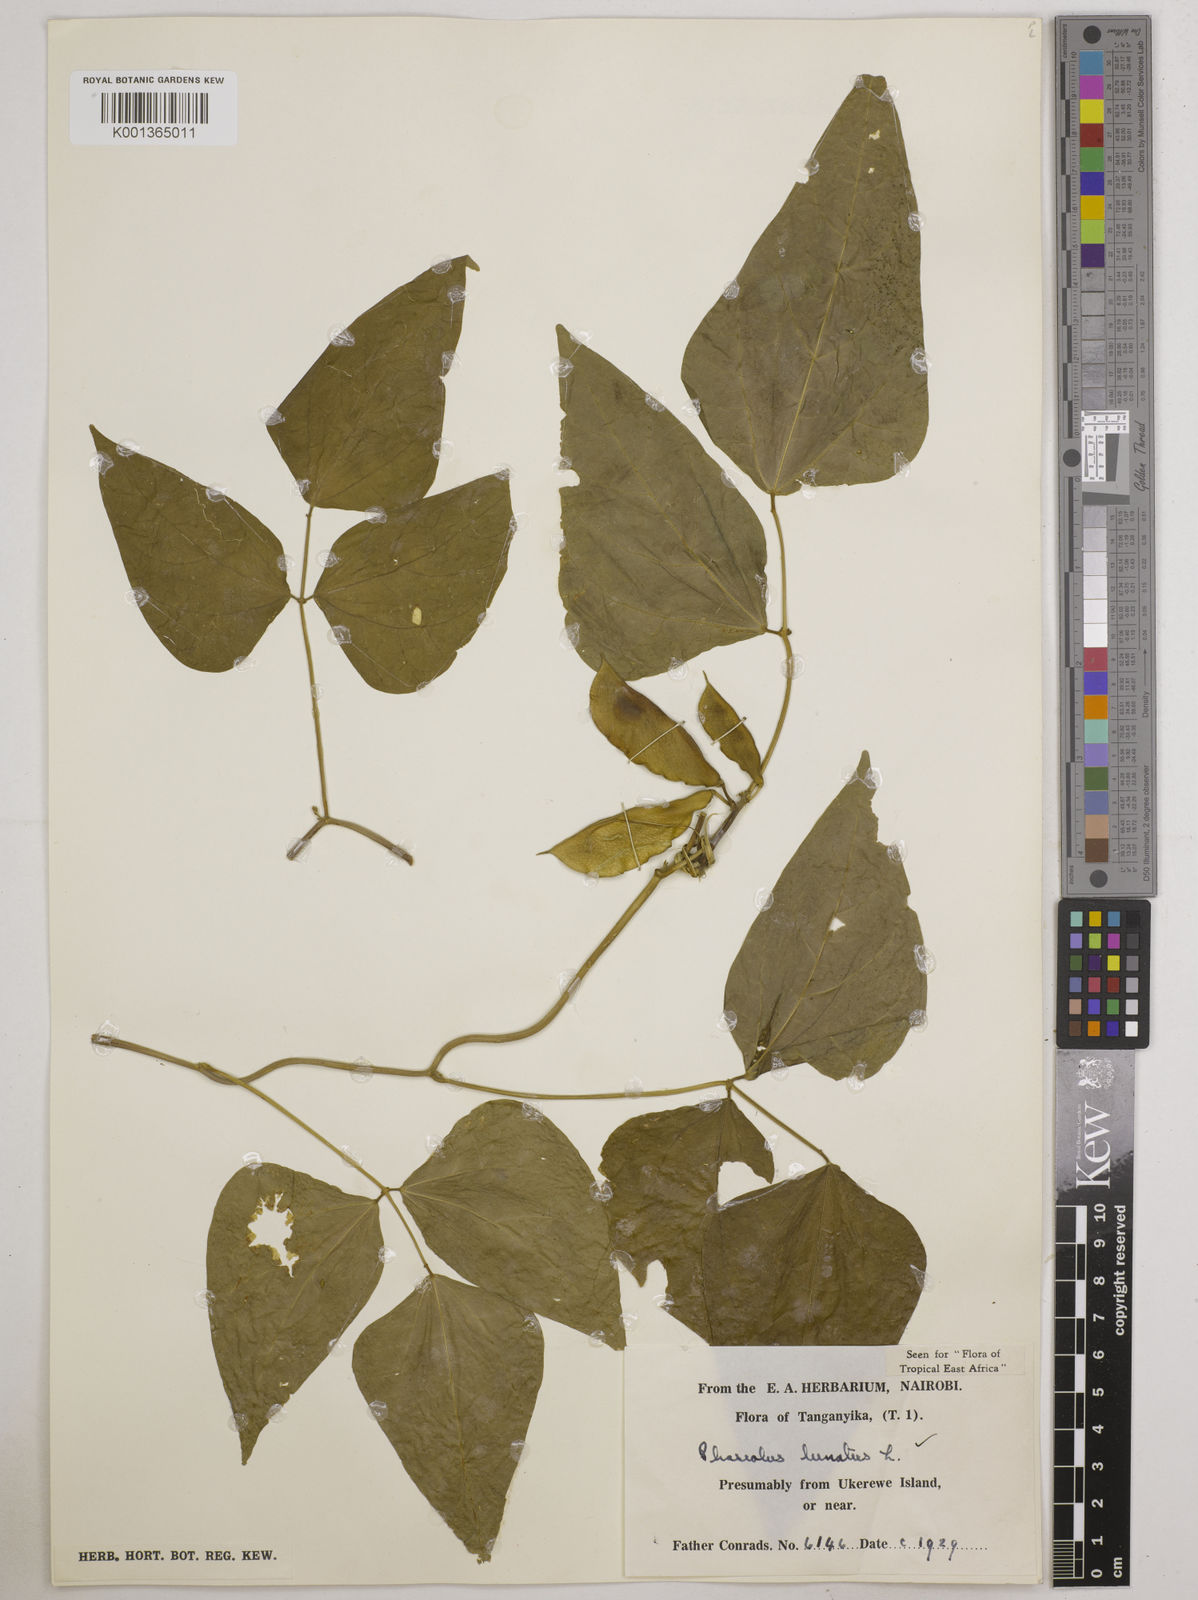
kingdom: Plantae
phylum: Tracheophyta
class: Magnoliopsida
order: Fabales
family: Fabaceae
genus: Phaseolus
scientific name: Phaseolus lunatus
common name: Sieva bean
